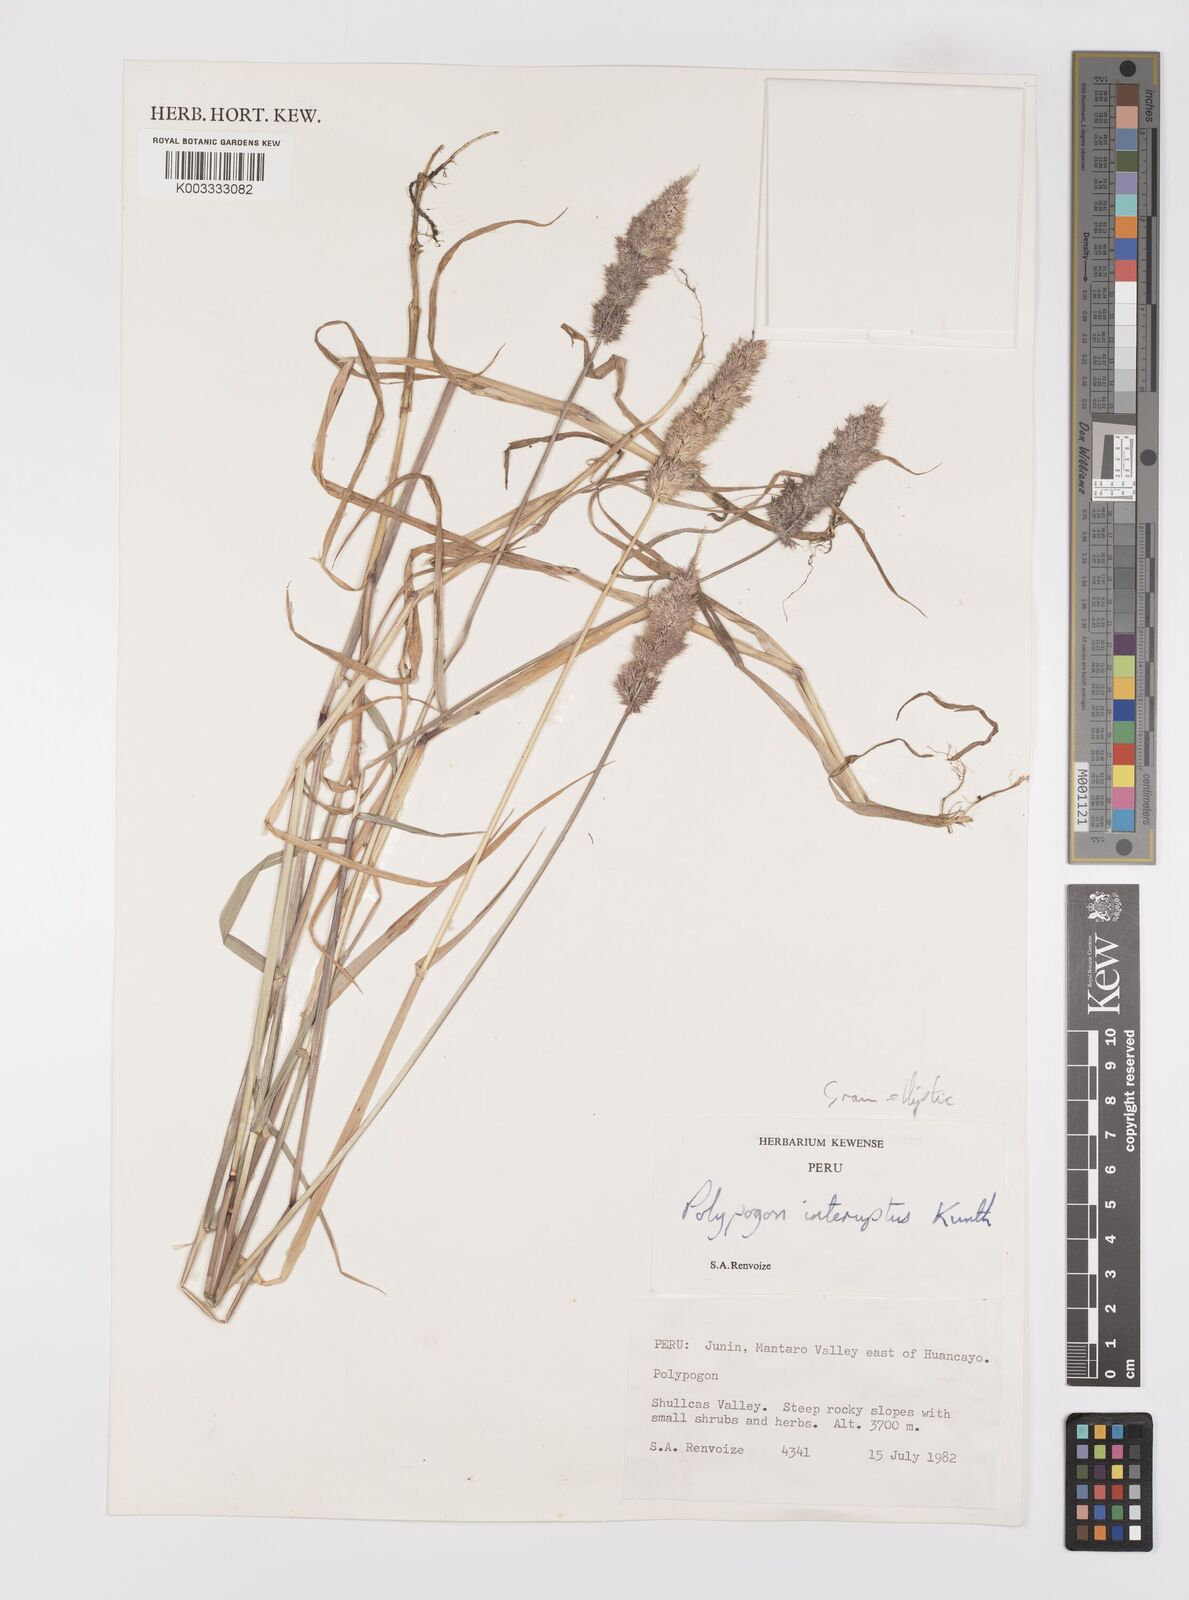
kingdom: Plantae
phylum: Tracheophyta
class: Liliopsida
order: Poales
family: Poaceae
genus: Polypogon
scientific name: Polypogon interruptus
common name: Ditch polypogon
